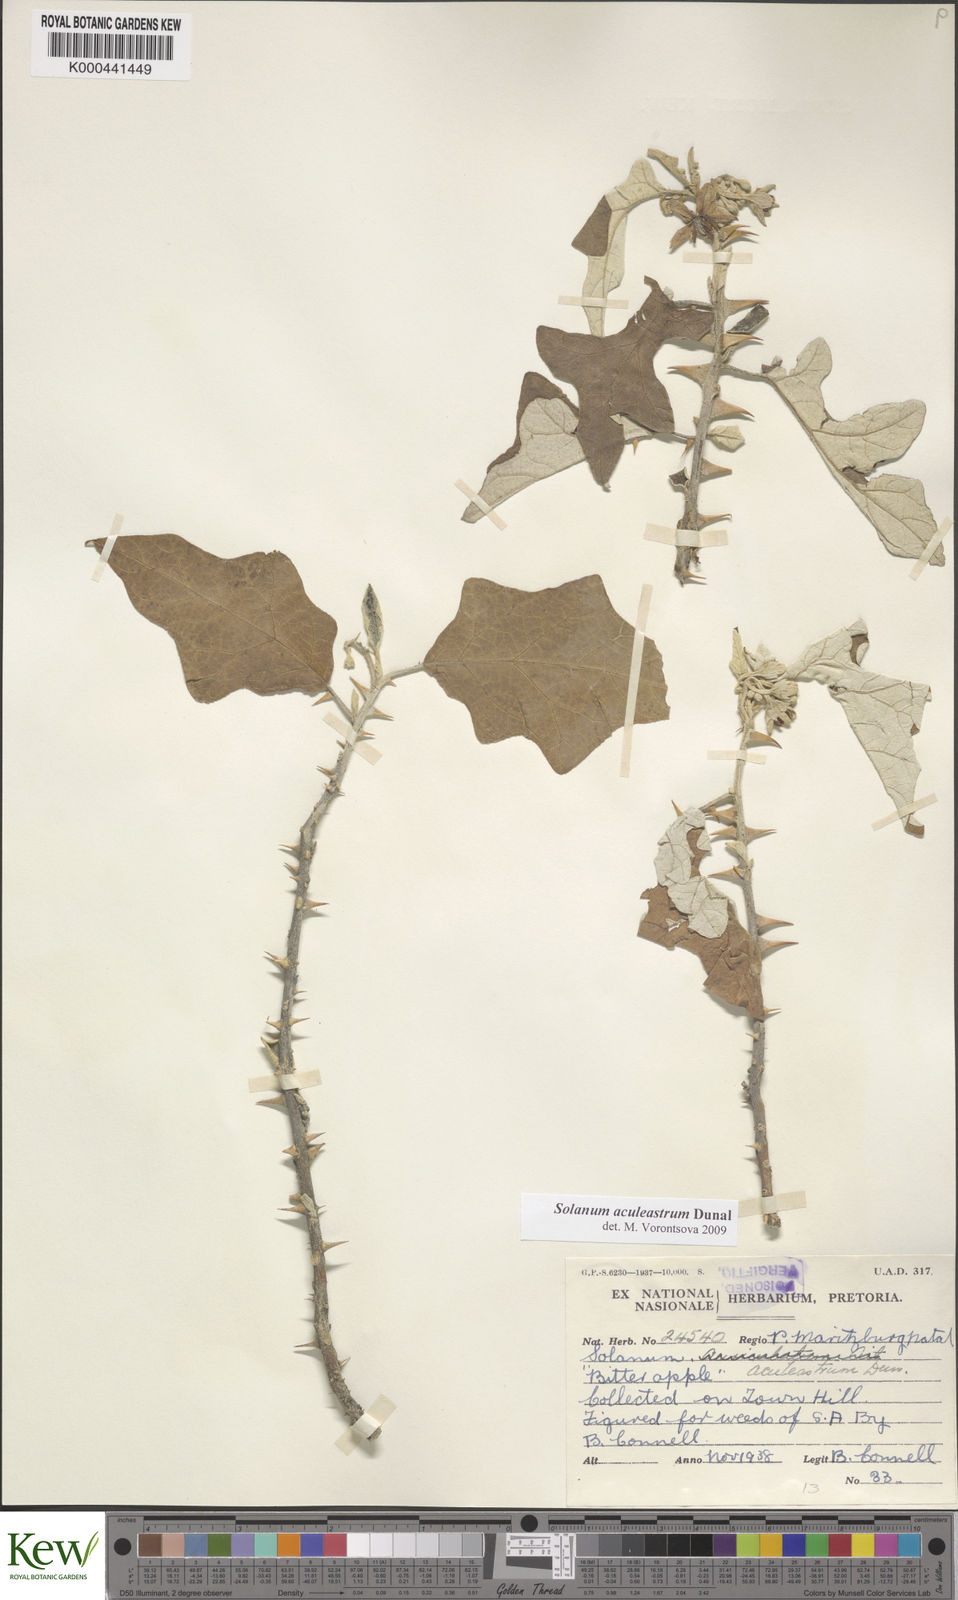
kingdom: Plantae
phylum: Tracheophyta
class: Magnoliopsida
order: Solanales
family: Solanaceae
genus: Solanum
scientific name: Solanum aculeastrum
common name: Goat bitter-apple
